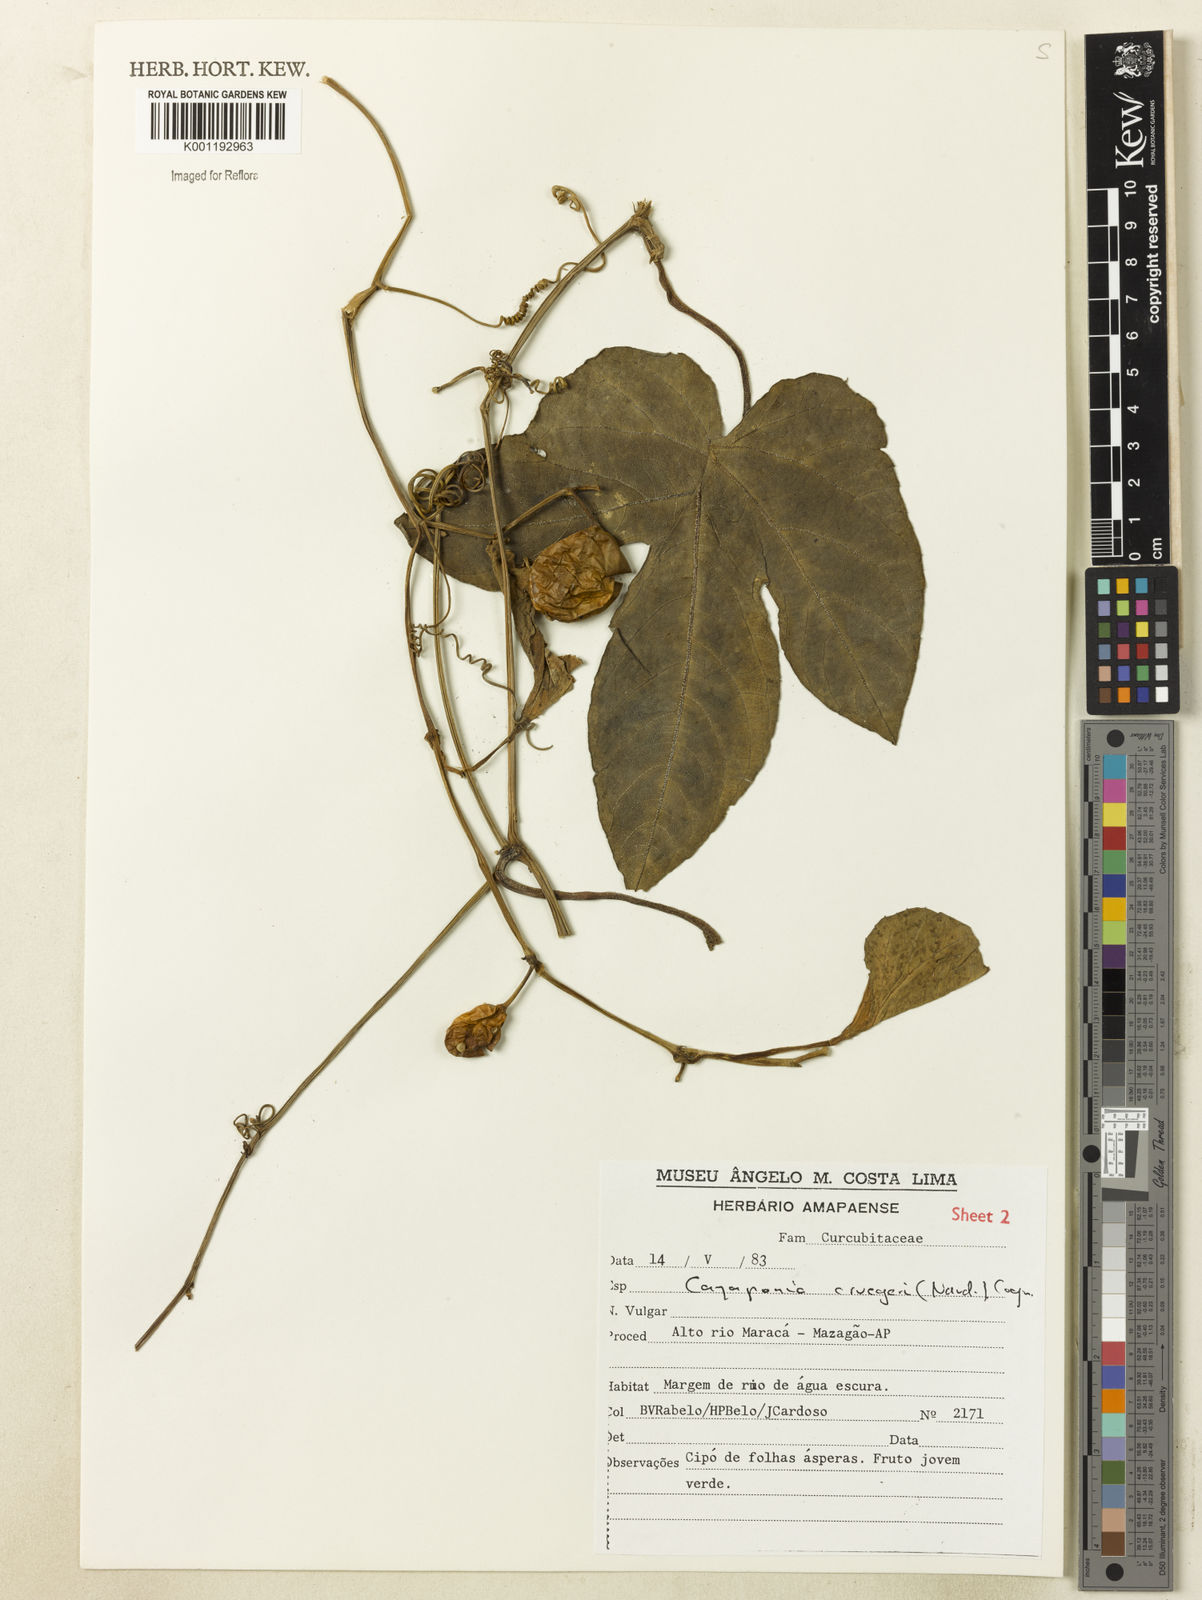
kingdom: Plantae
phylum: Tracheophyta
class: Magnoliopsida
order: Cucurbitales
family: Cucurbitaceae
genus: Cayaponia
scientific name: Cayaponia cruegeri
